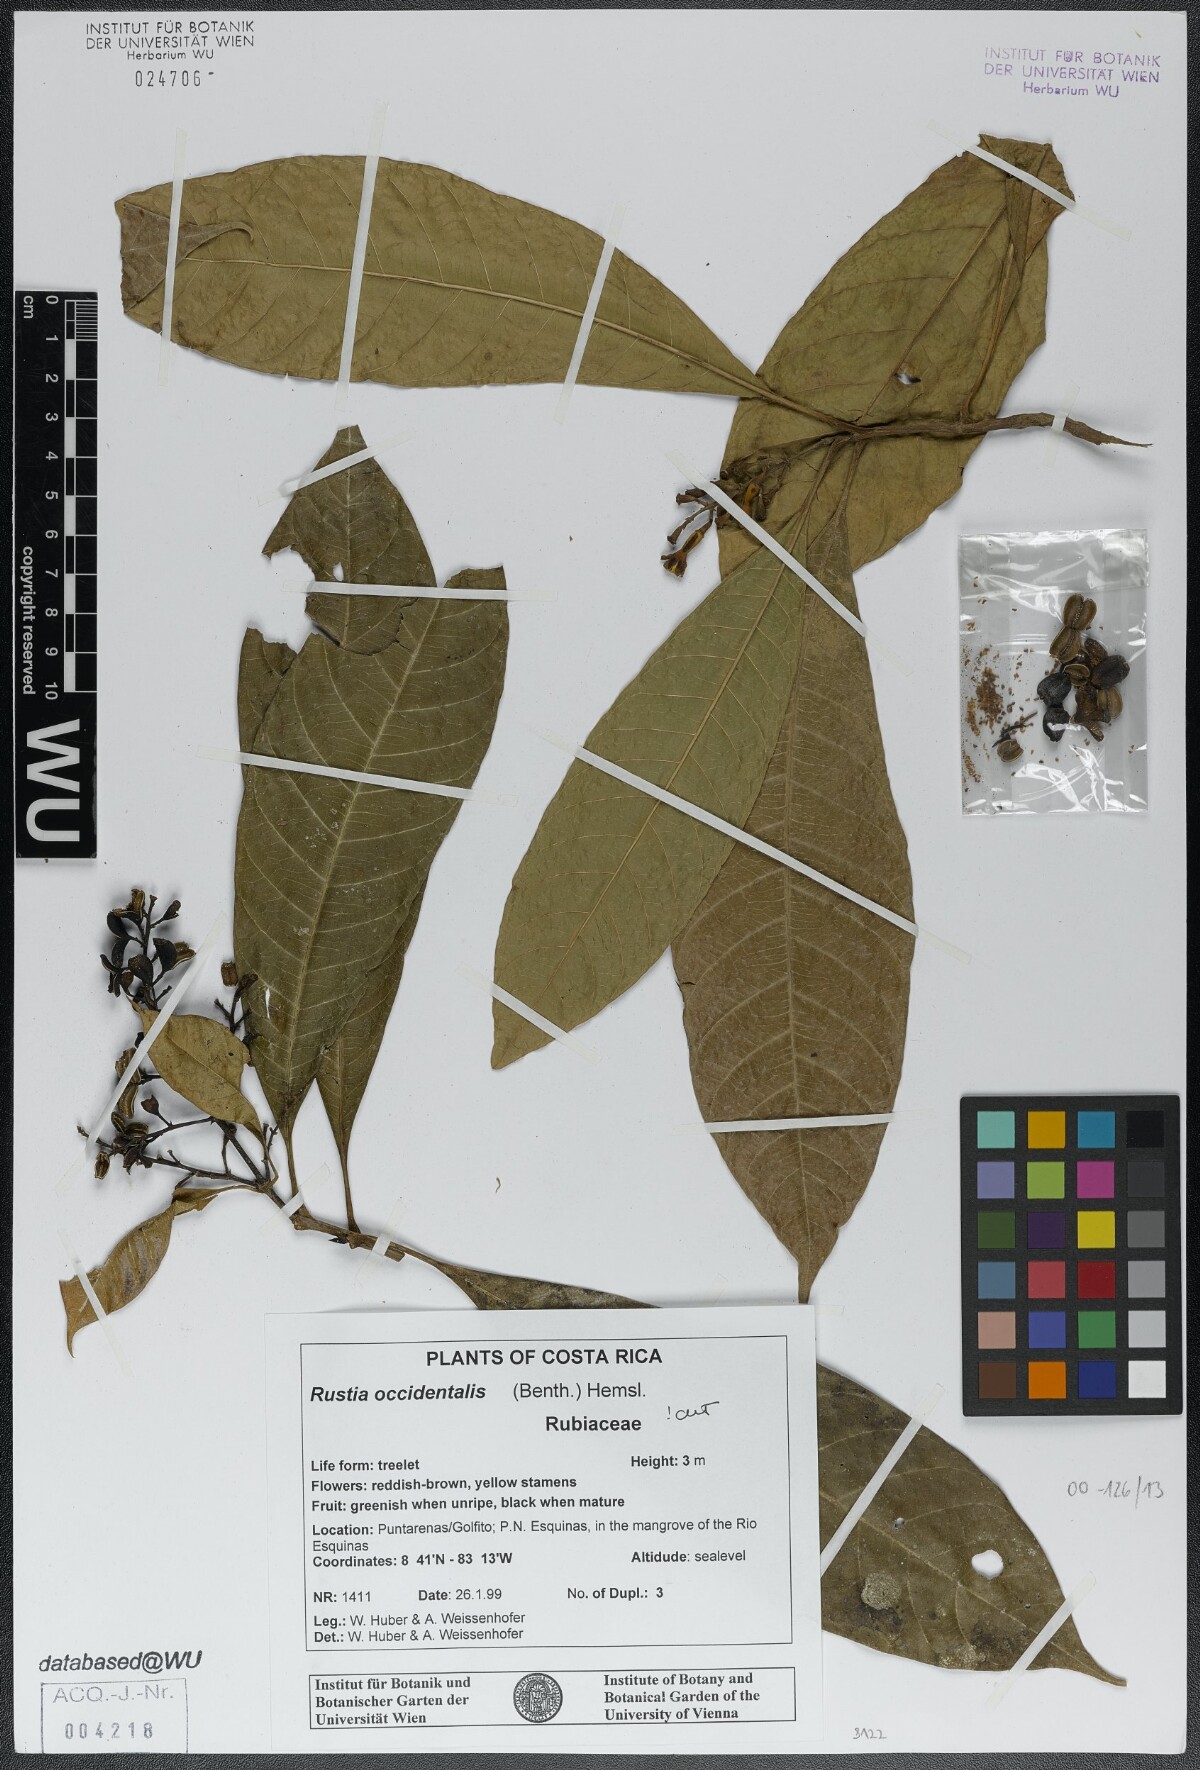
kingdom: Plantae
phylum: Tracheophyta
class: Magnoliopsida
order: Gentianales
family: Rubiaceae
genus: Rustia
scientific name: Rustia occidentalis
